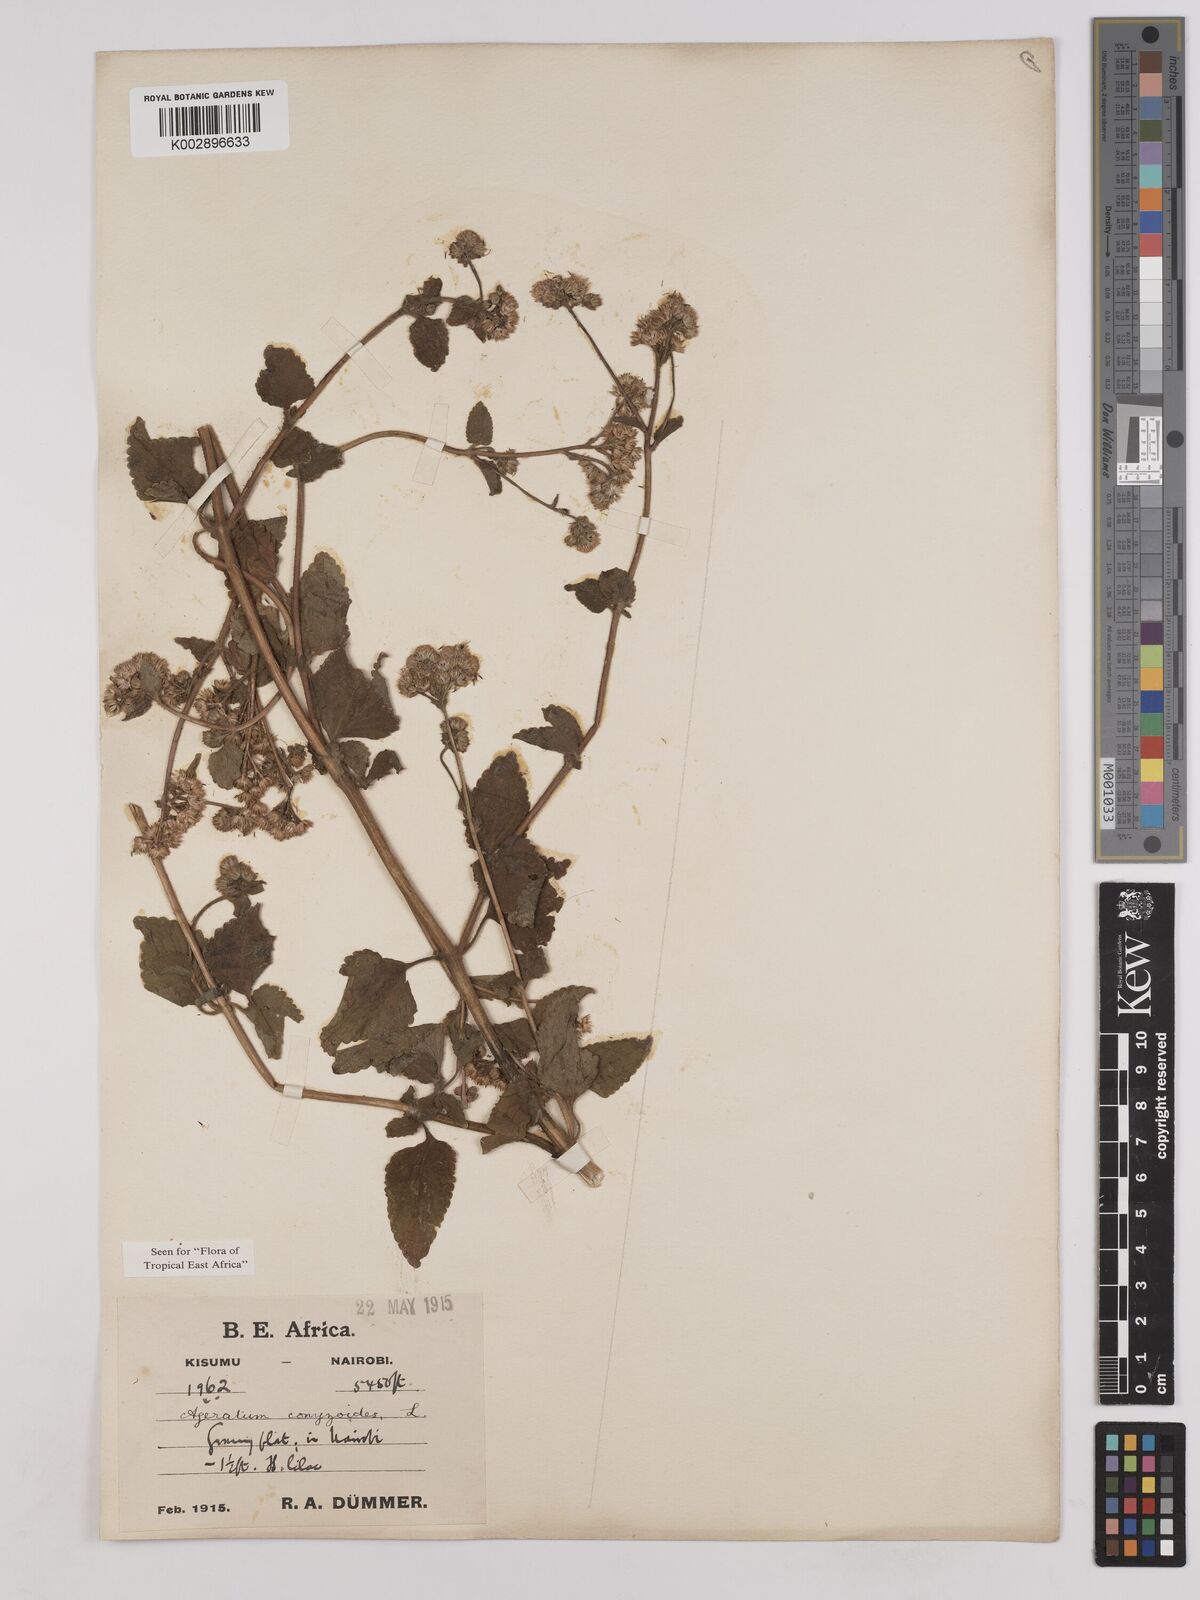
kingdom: Plantae
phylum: Tracheophyta
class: Magnoliopsida
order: Asterales
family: Asteraceae
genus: Ageratum
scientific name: Ageratum conyzoides
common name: Tropical whiteweed
